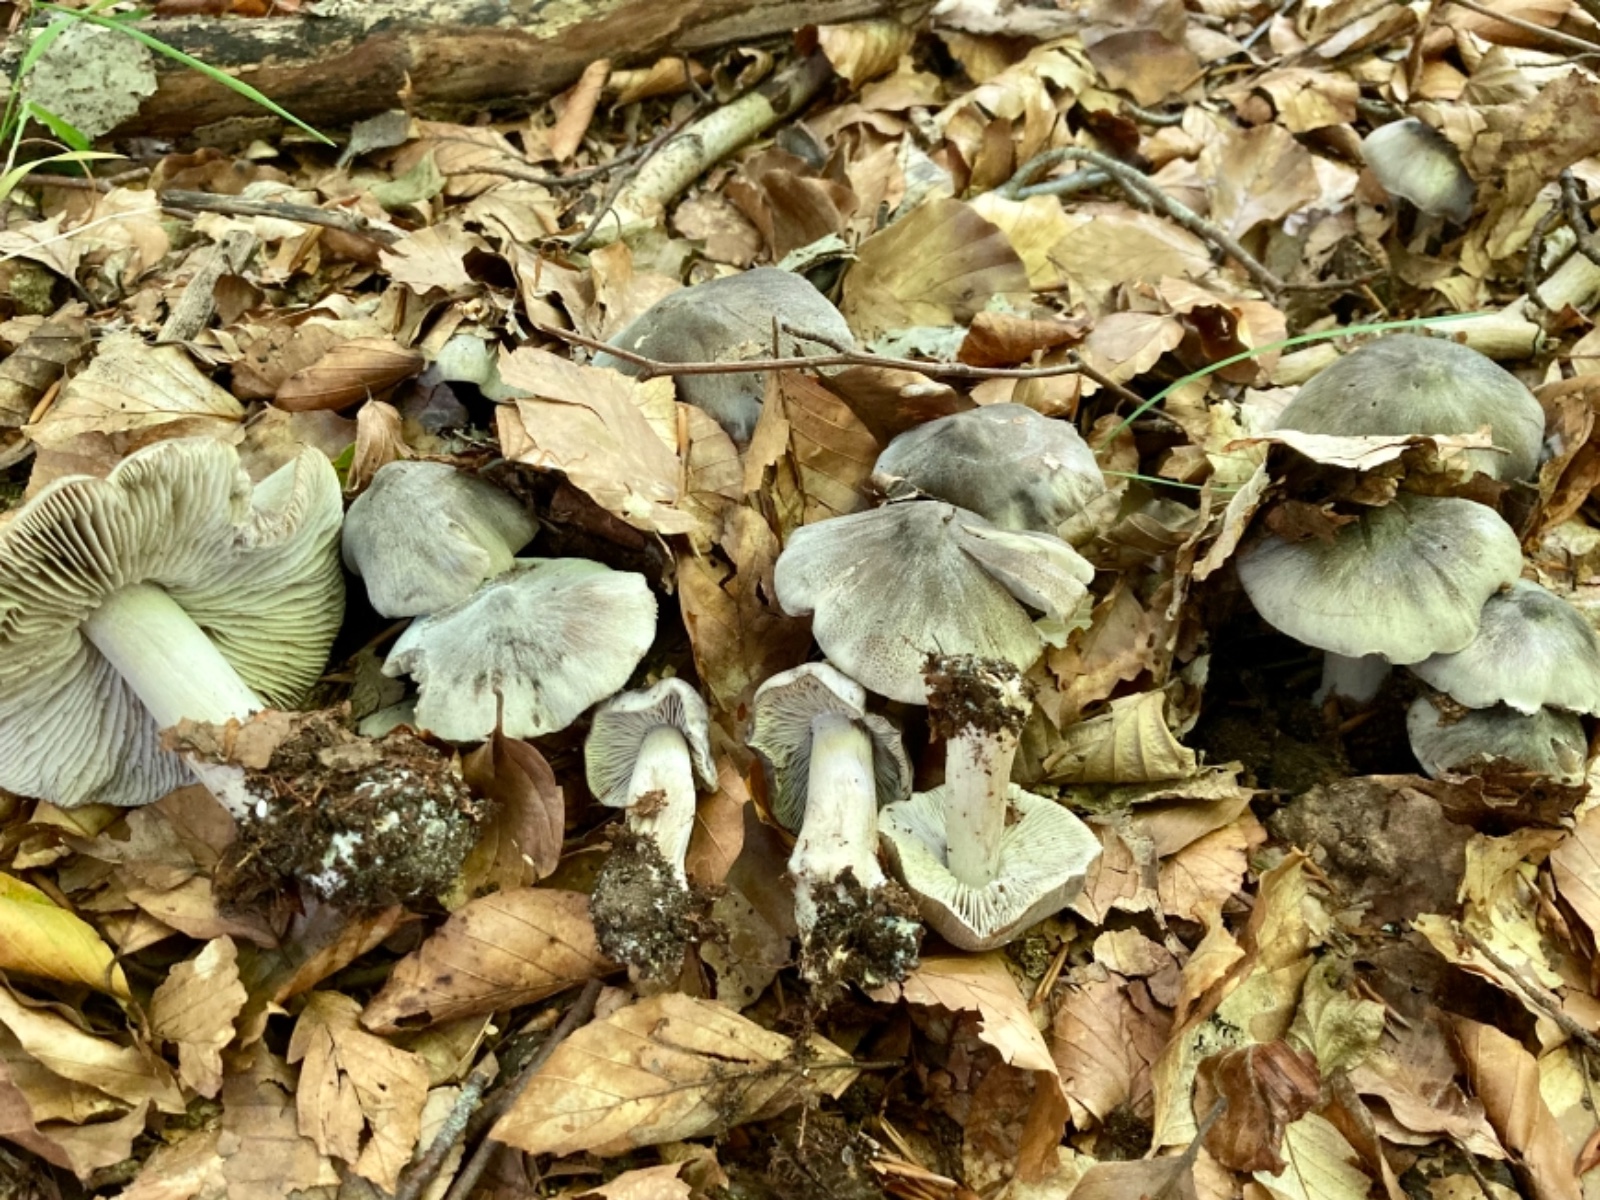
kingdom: Fungi
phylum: Basidiomycota
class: Agaricomycetes
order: Agaricales
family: Tricholomataceae
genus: Tricholoma
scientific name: Tricholoma sciodes
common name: stribet ridderhat
